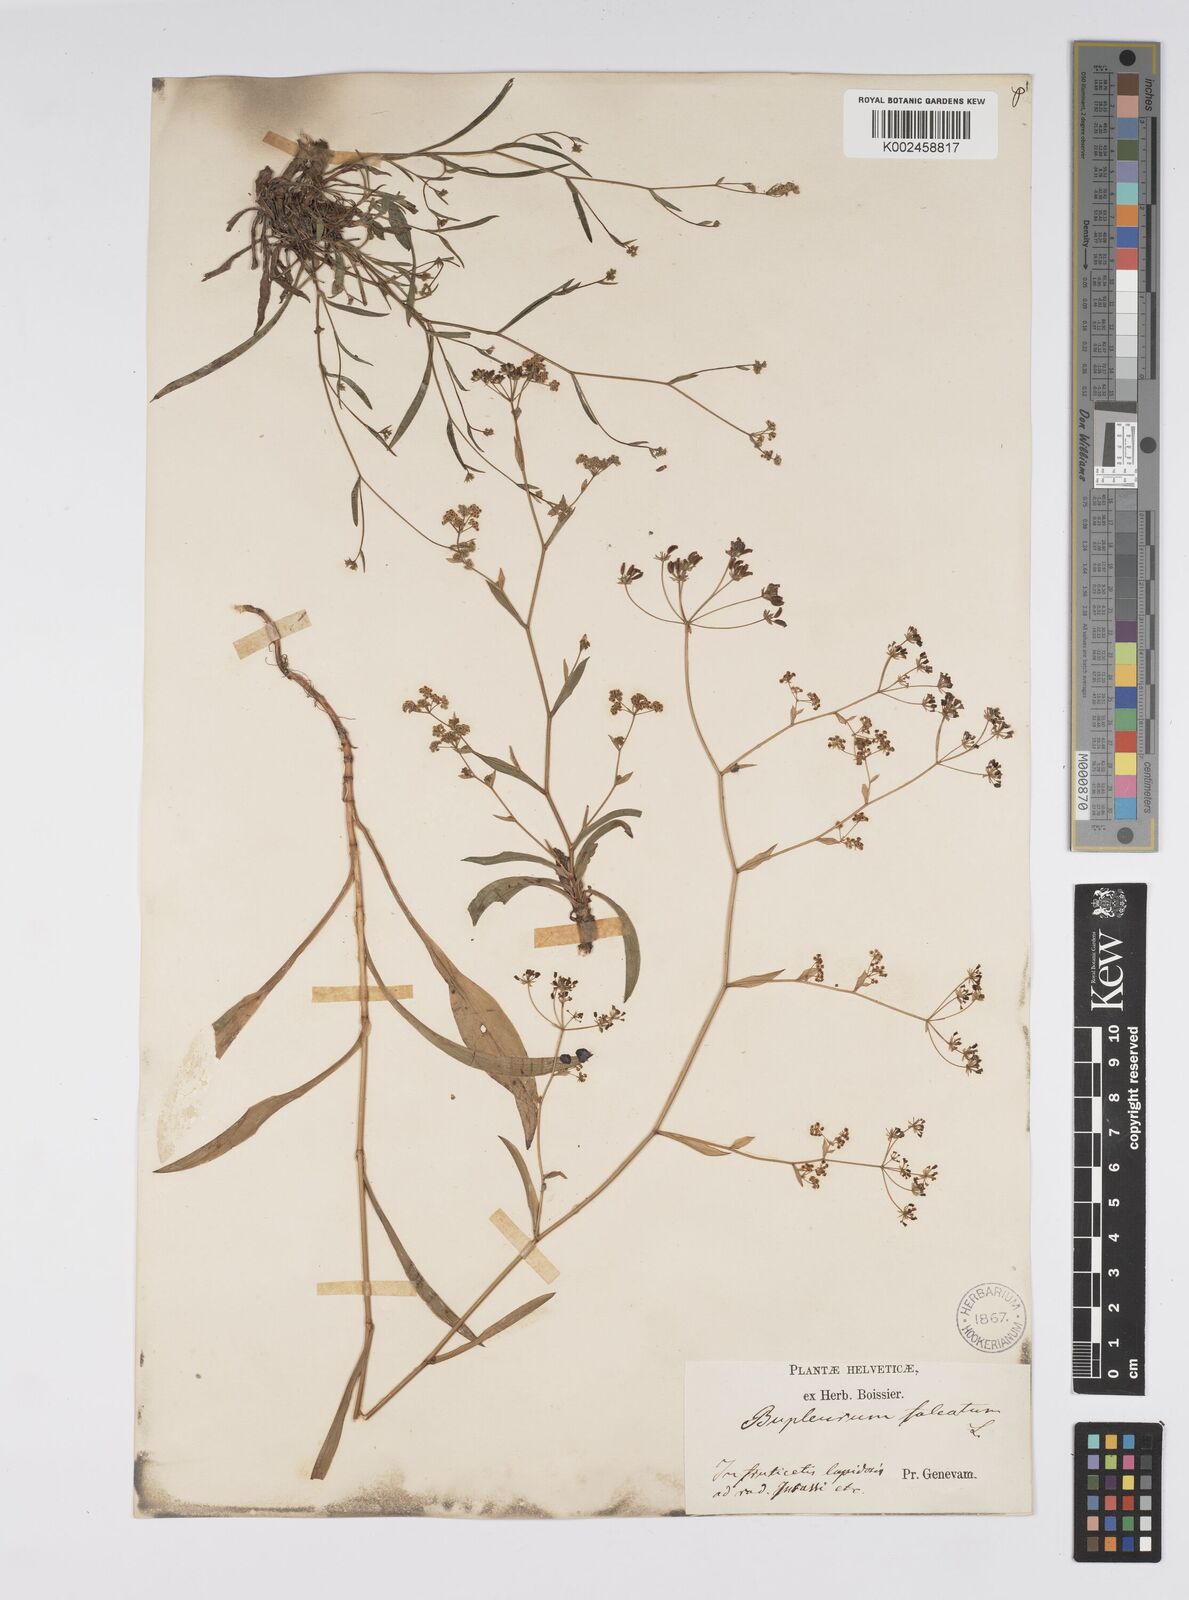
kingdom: Plantae
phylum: Tracheophyta
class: Magnoliopsida
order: Apiales
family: Apiaceae
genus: Bupleurum
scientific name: Bupleurum falcatum
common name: Sickle-leaved hare's-ear
